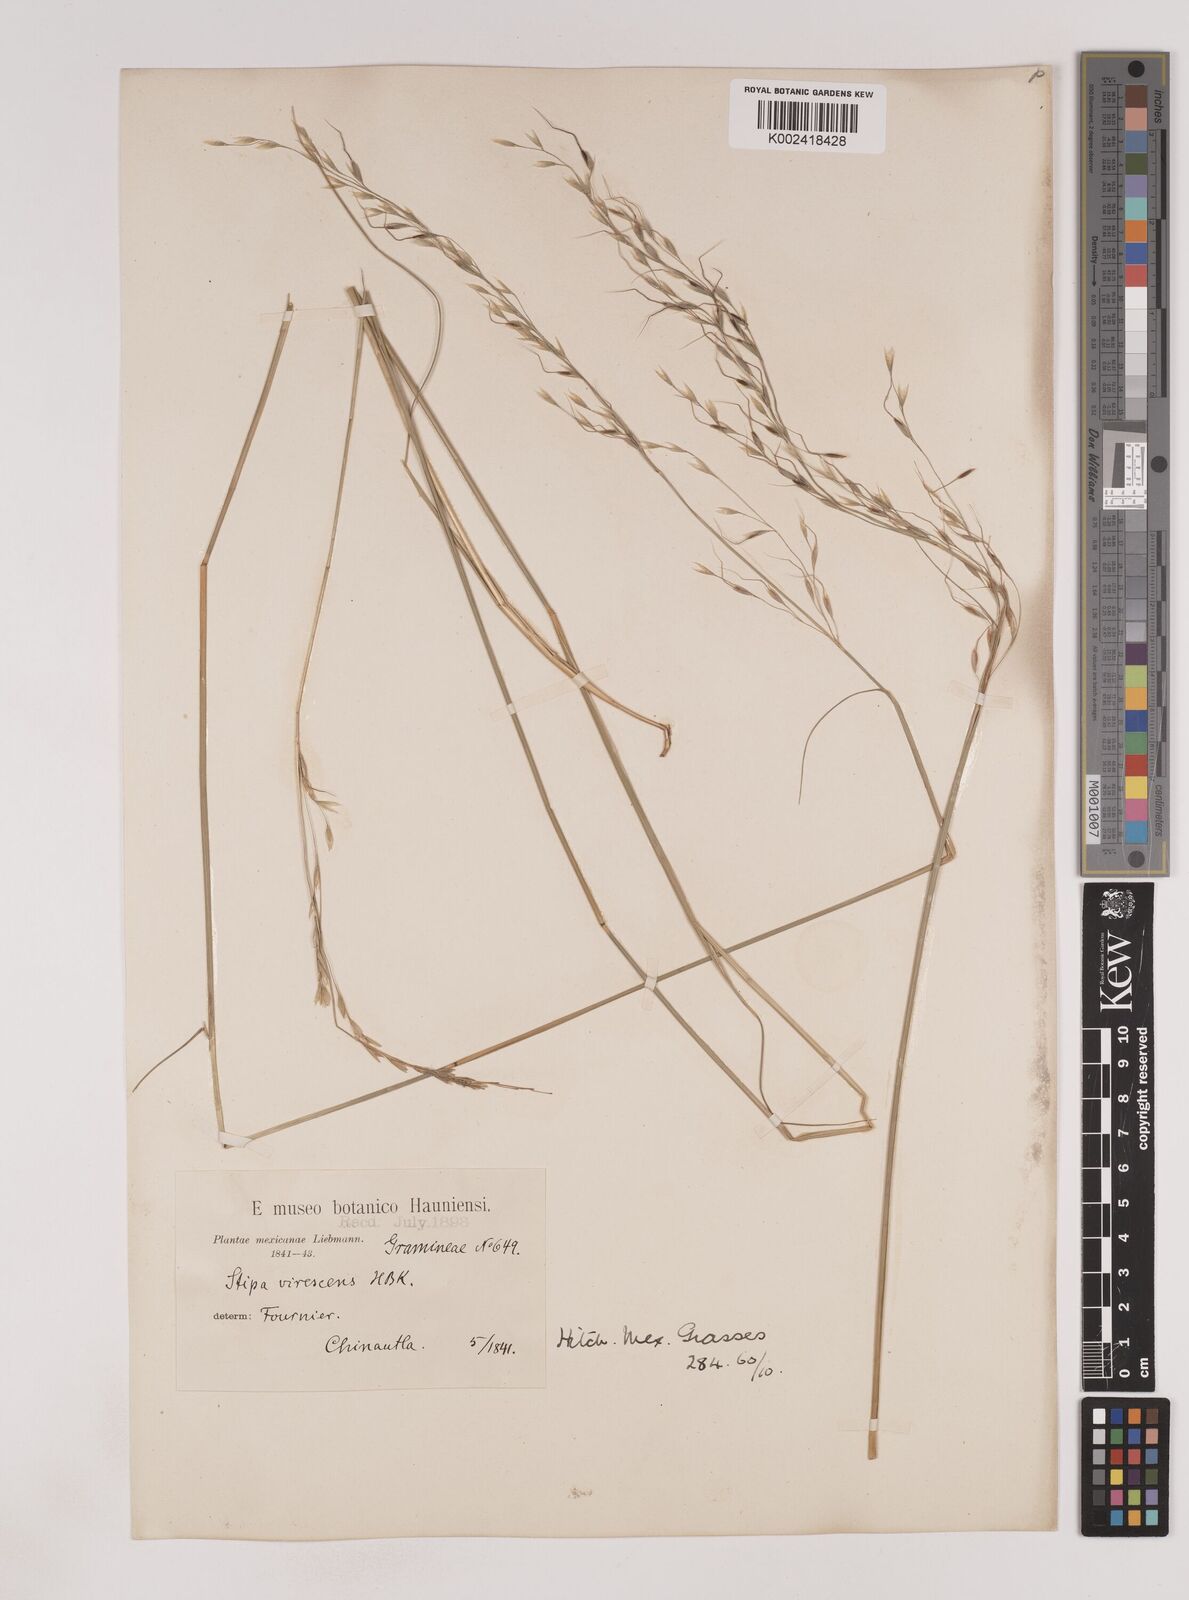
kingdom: Plantae
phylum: Tracheophyta
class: Liliopsida
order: Poales
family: Poaceae
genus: Piptochaetium
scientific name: Piptochaetium virescens
